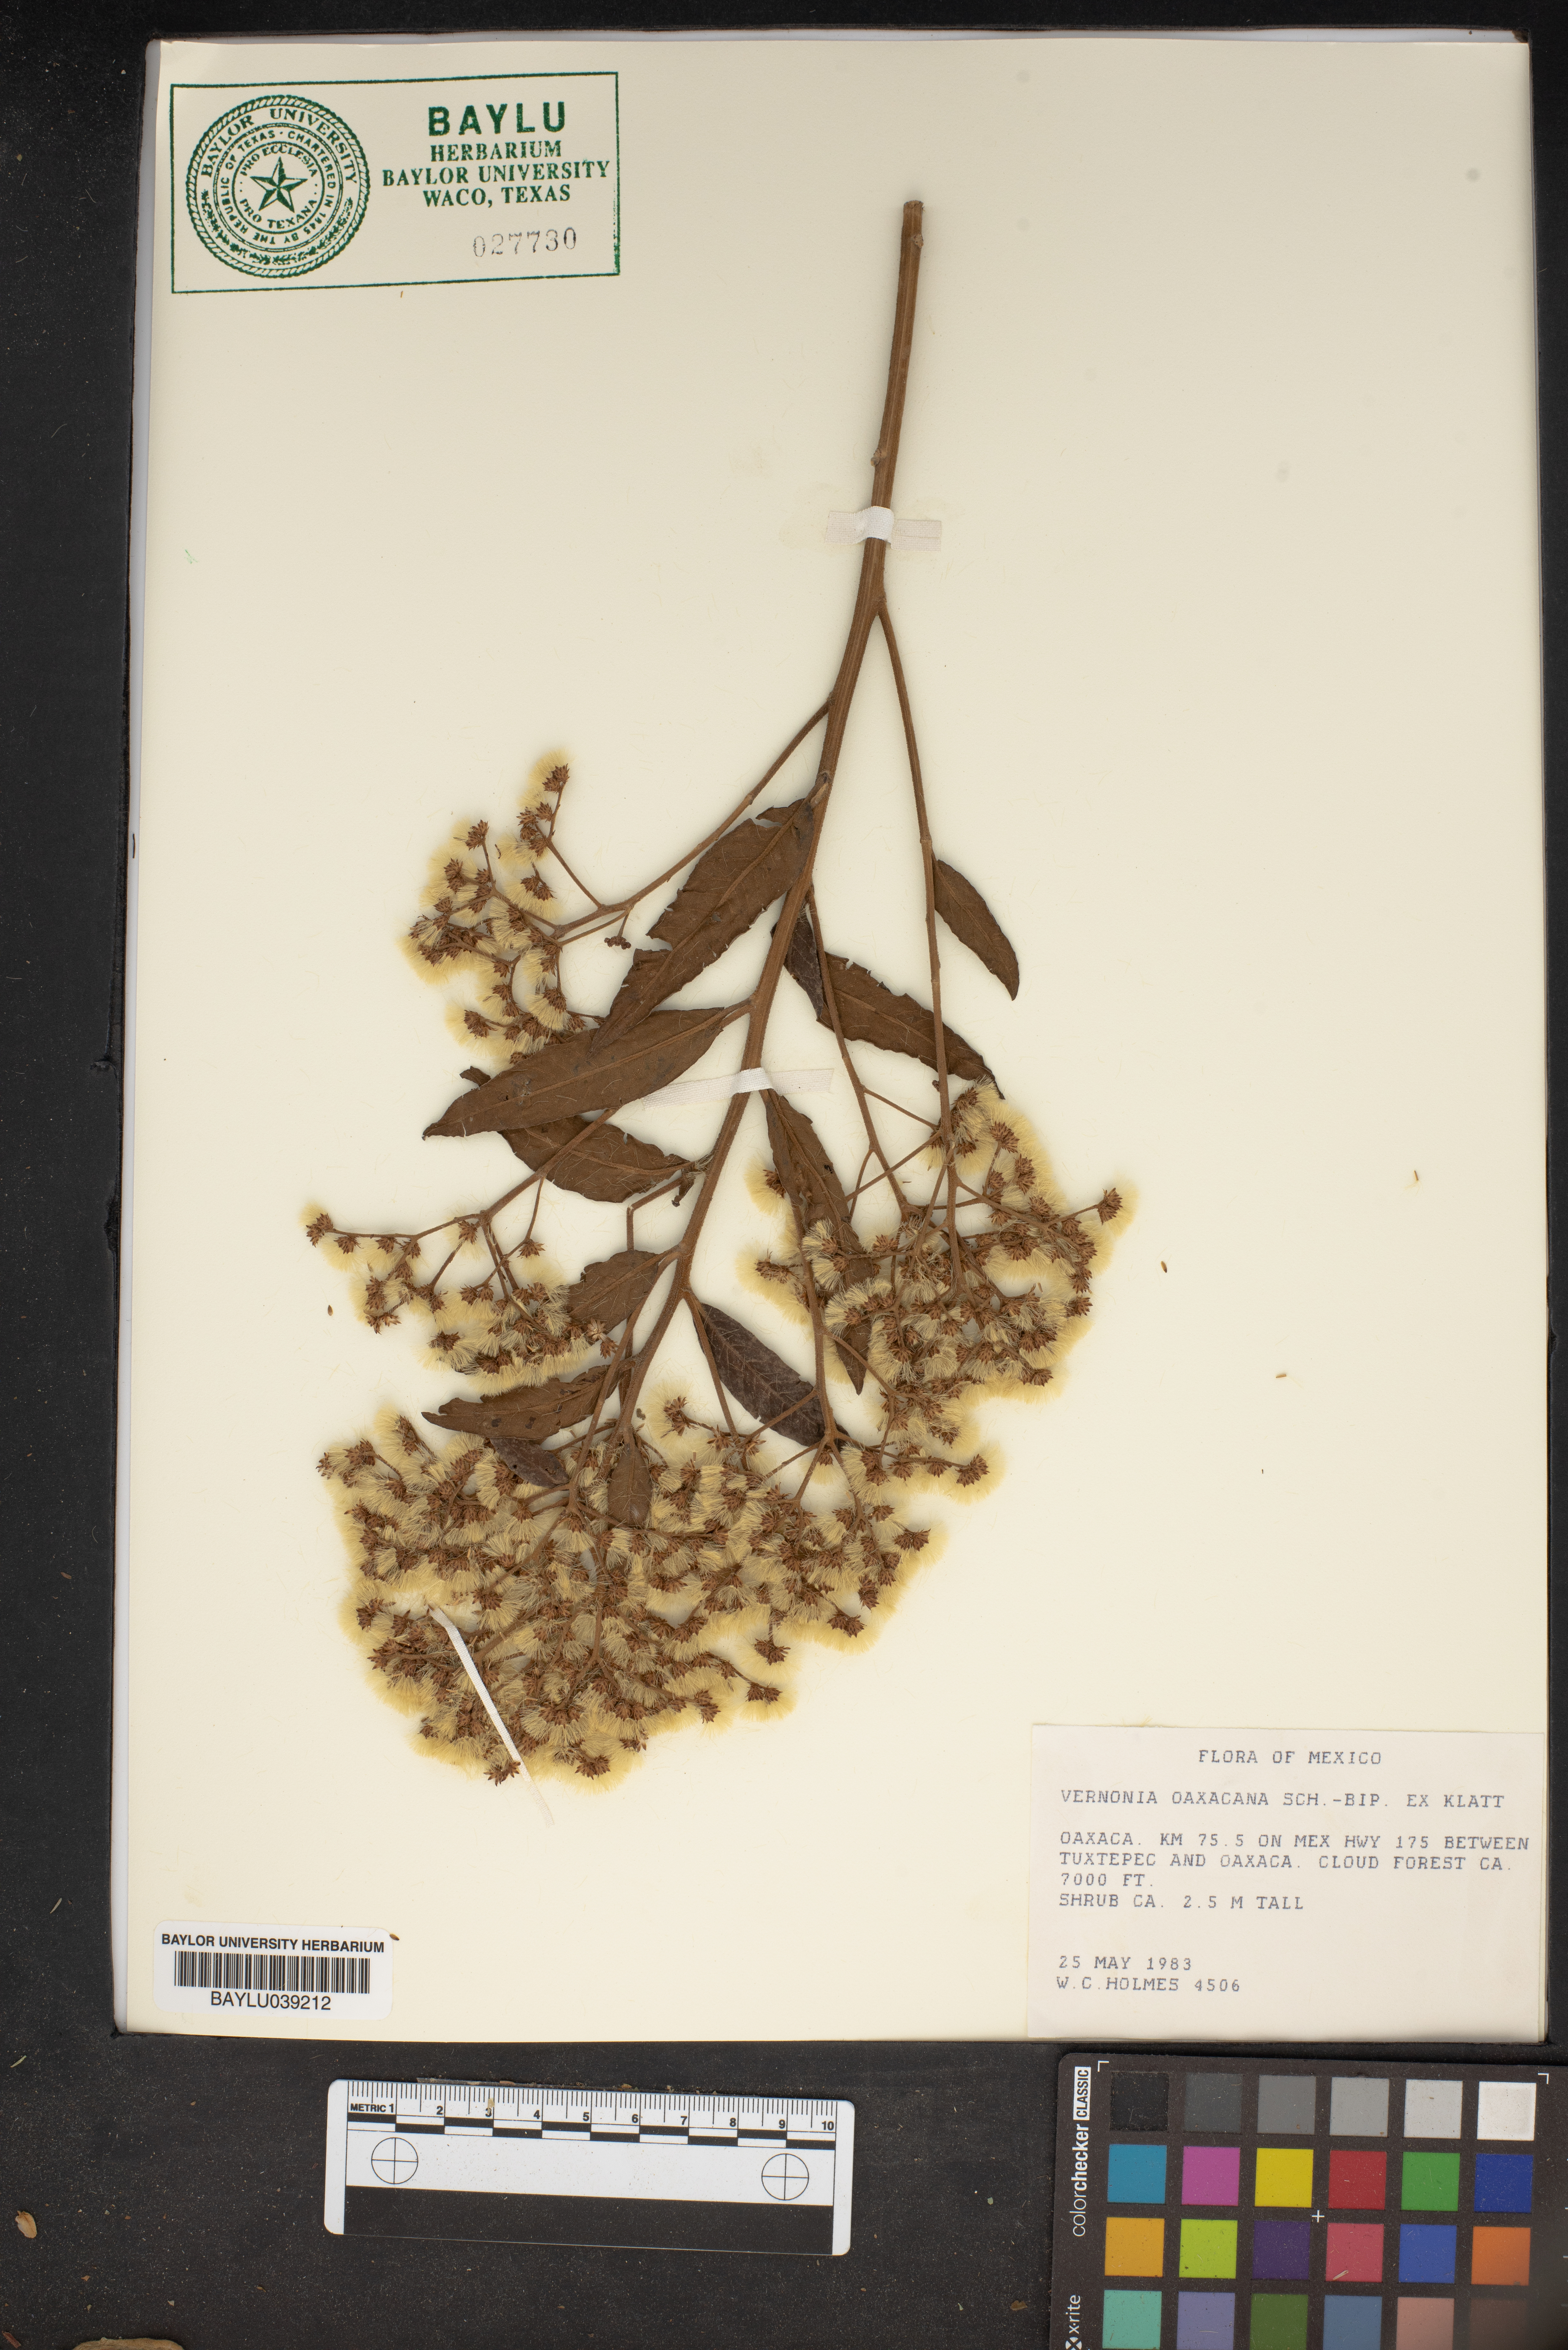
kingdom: Plantae
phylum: Tracheophyta
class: Magnoliopsida
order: Asterales
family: Asteraceae
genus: Vernonanthura
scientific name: Vernonanthura oaxacana
